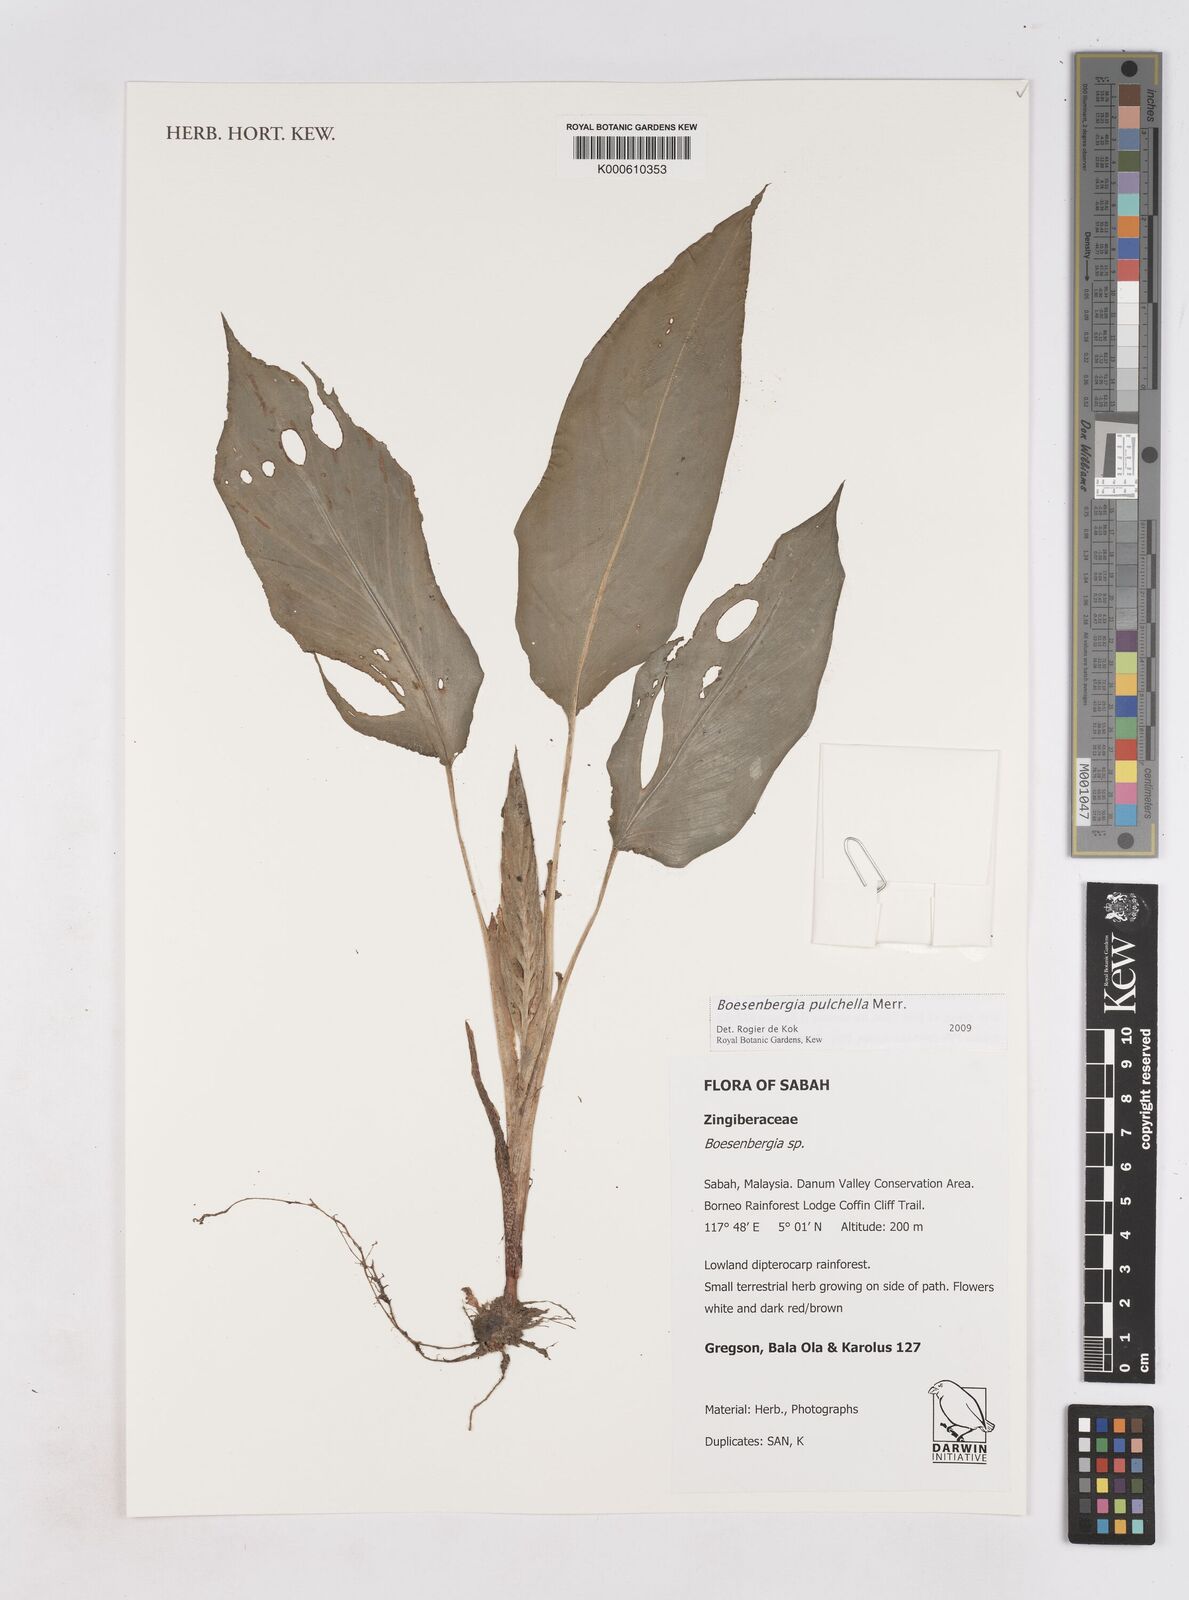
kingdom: Plantae
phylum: Tracheophyta
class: Liliopsida
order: Zingiberales
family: Zingiberaceae
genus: Boesenbergia
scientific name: Boesenbergia pulchella
